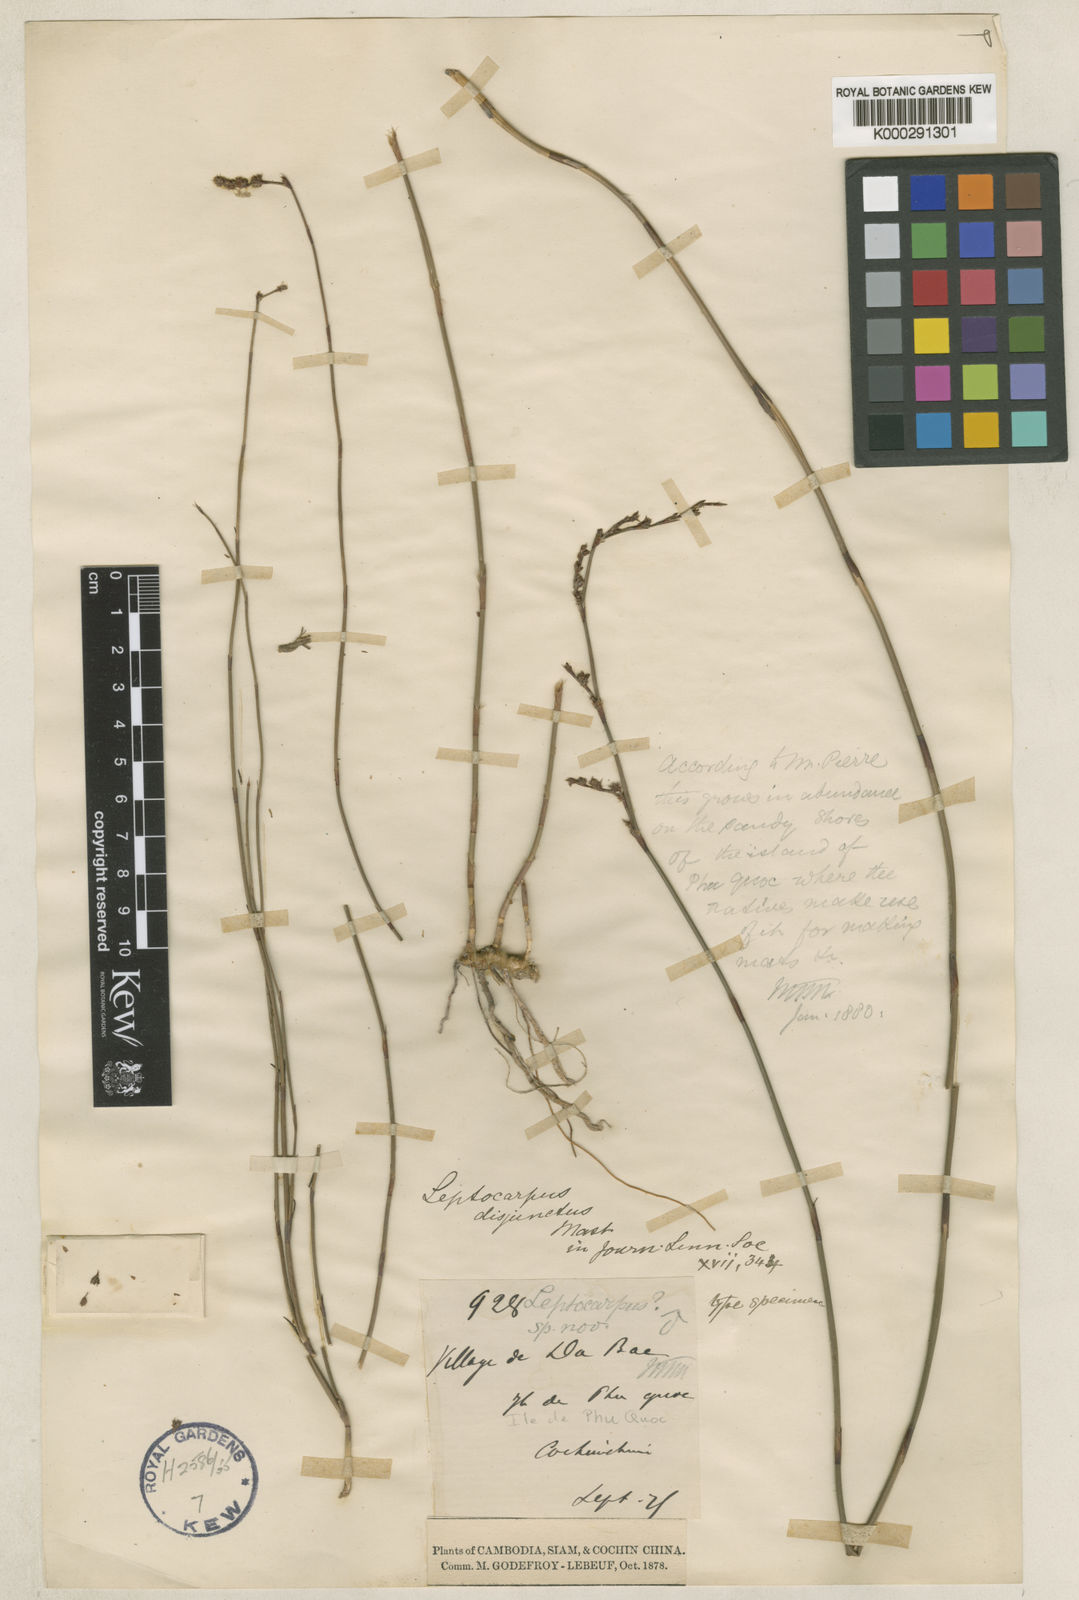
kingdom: Plantae
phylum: Tracheophyta
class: Liliopsida
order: Poales
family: Restionaceae
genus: Dapsilanthus
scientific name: Dapsilanthus disjunctus
